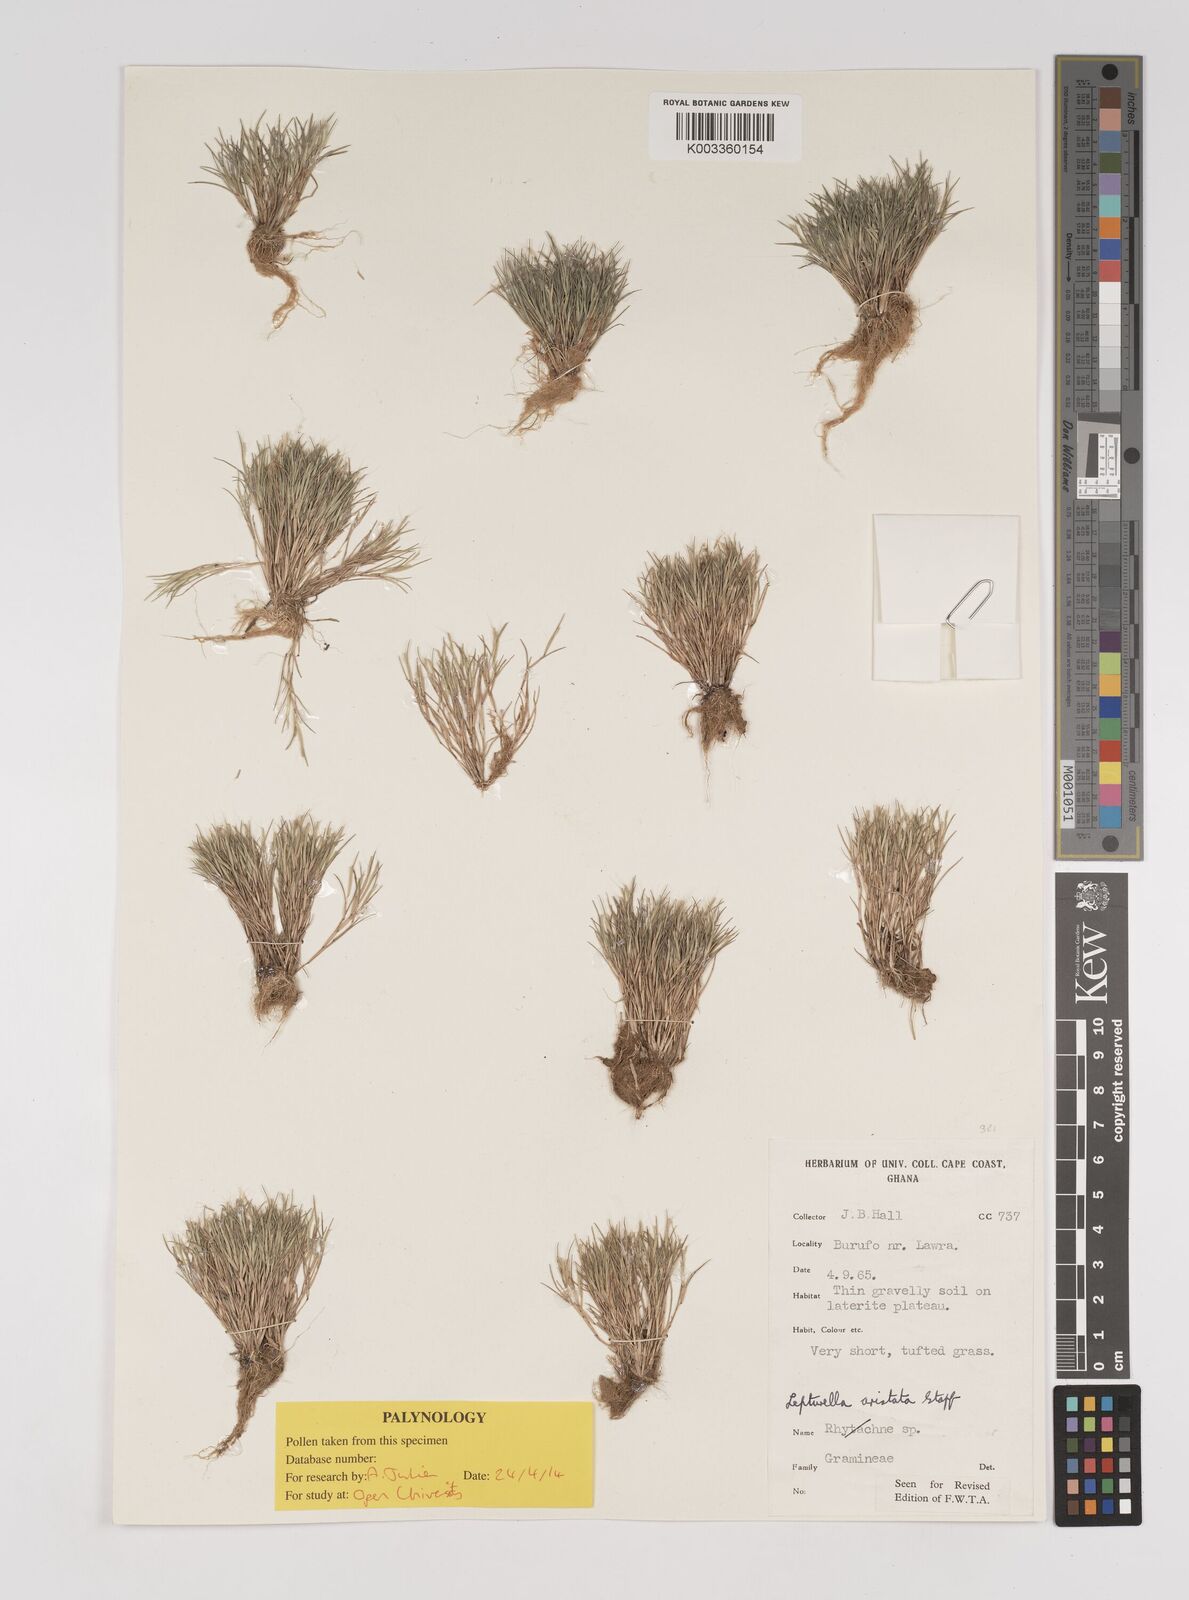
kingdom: Plantae
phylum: Tracheophyta
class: Liliopsida
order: Poales
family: Poaceae
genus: Oropetium
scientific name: Oropetium aristatum
